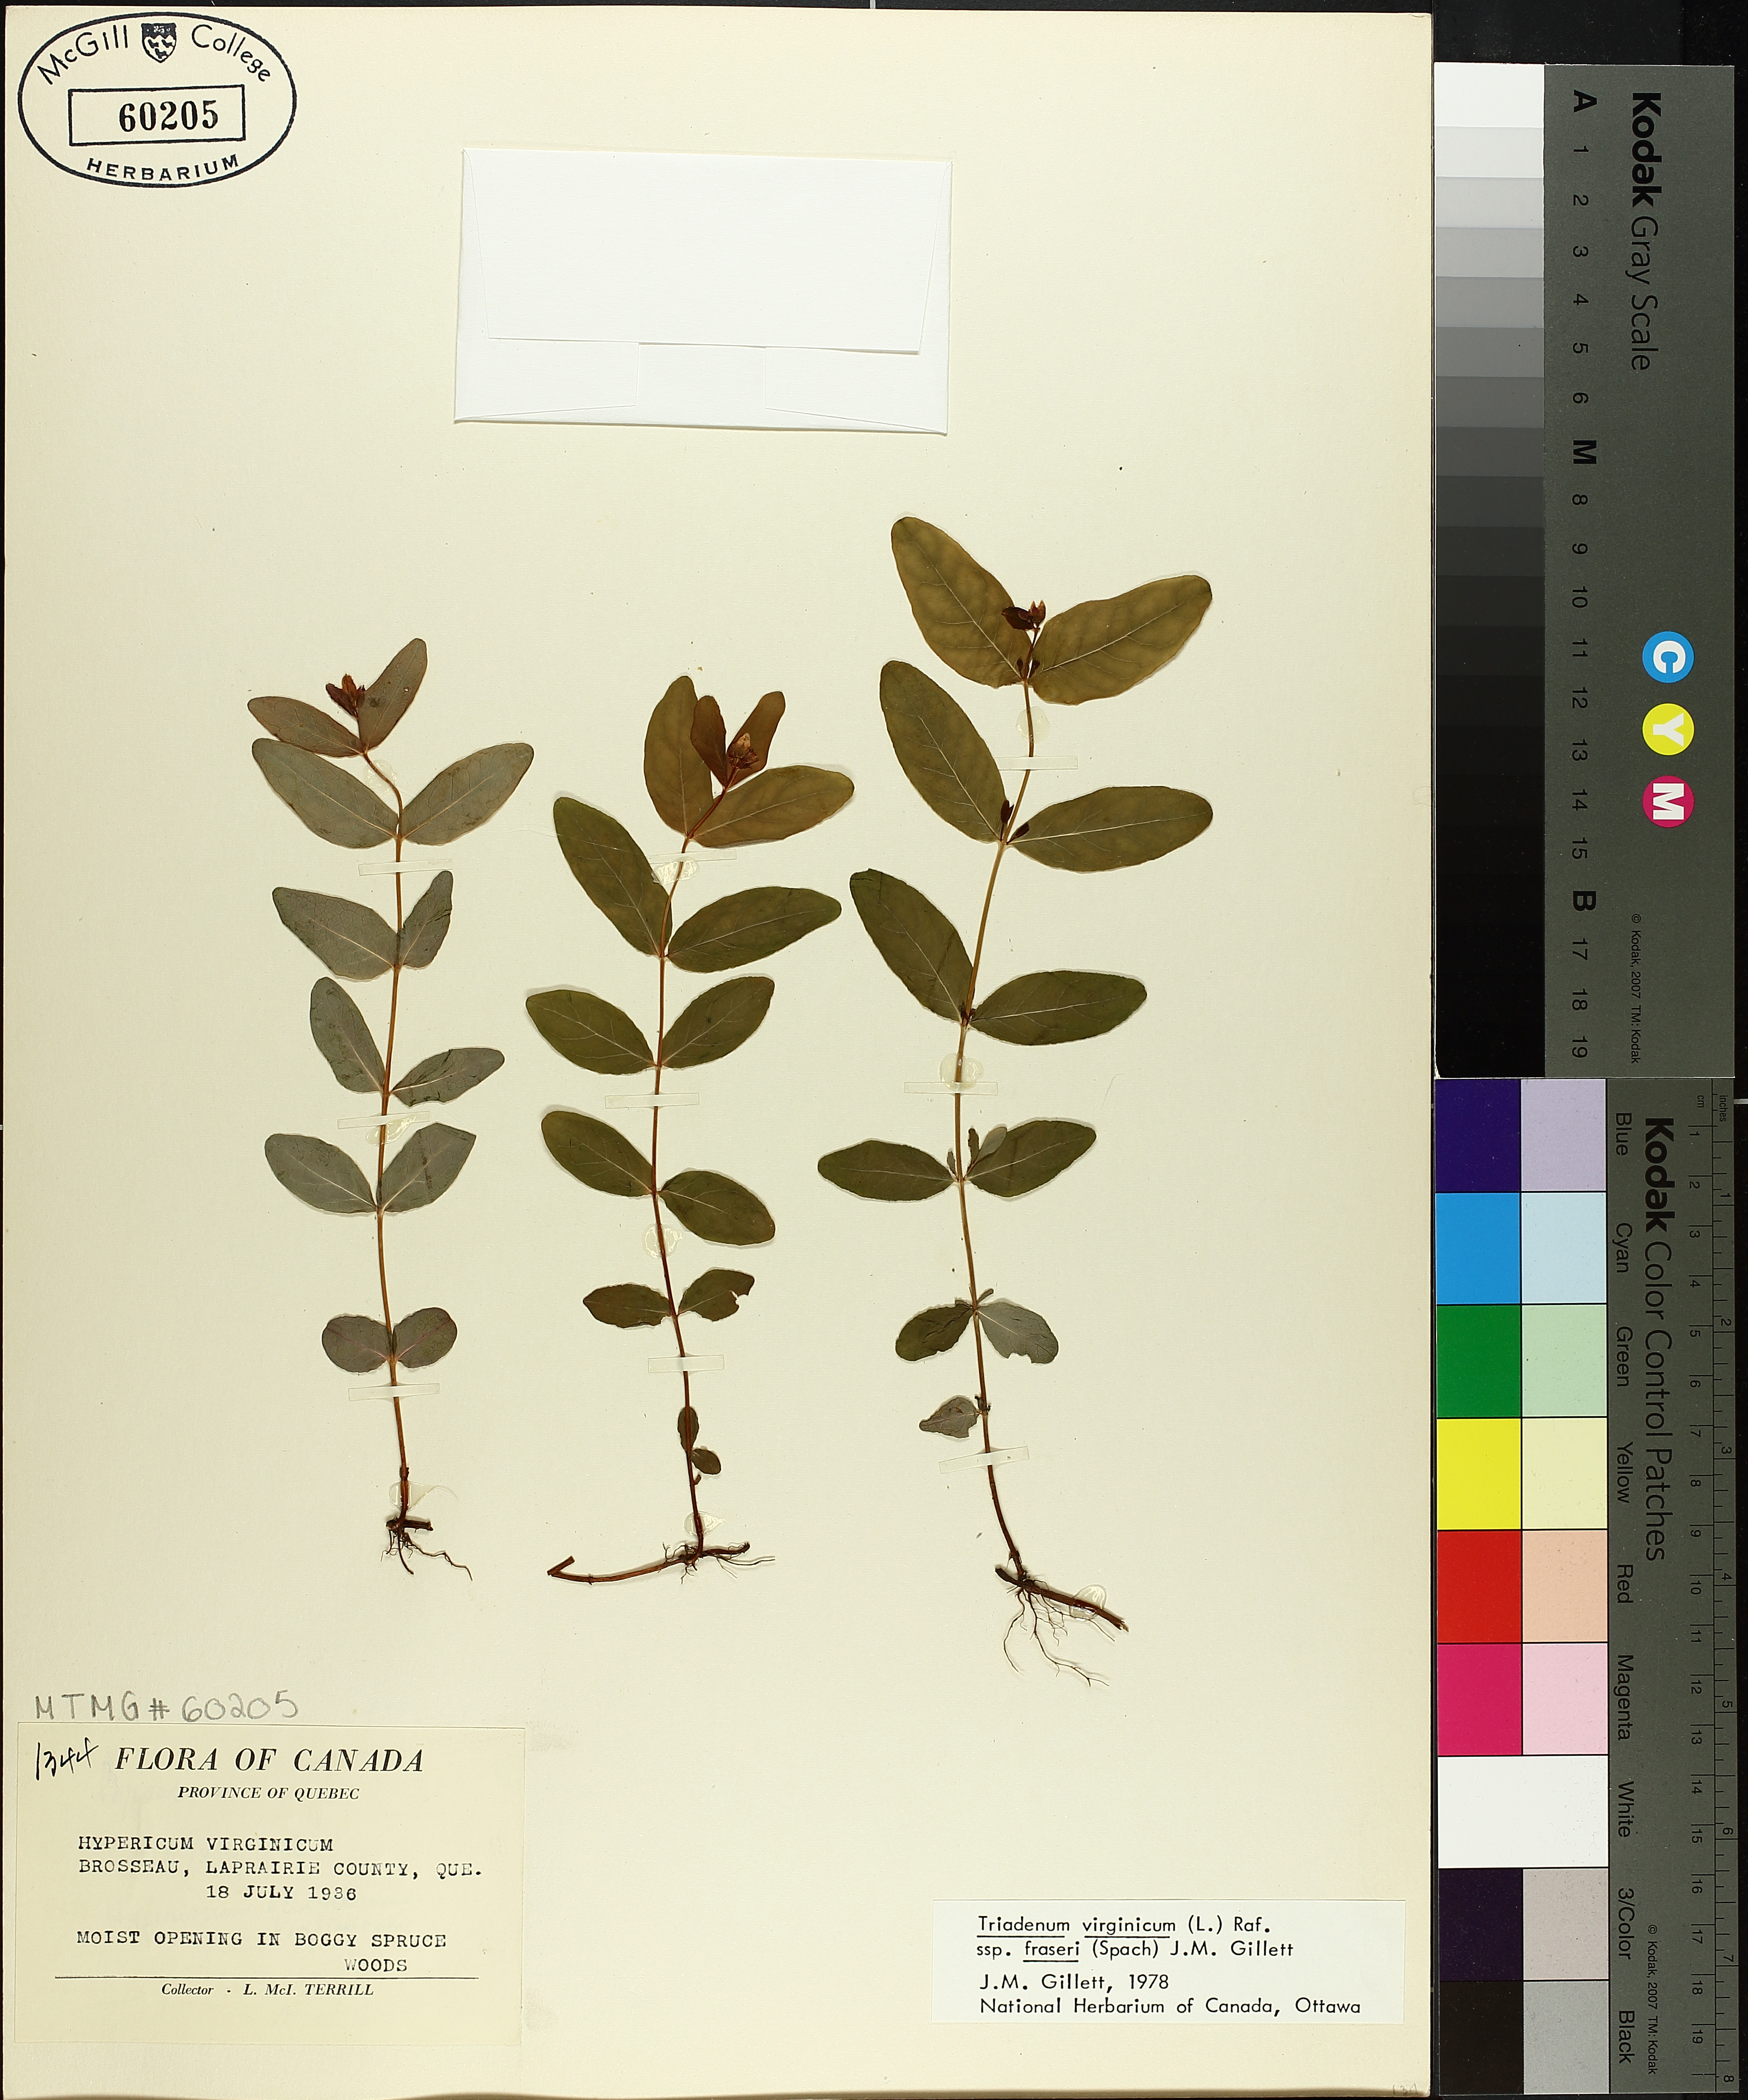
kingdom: Plantae
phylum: Tracheophyta
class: Magnoliopsida
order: Malpighiales
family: Hypericaceae
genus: Triadenum
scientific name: Triadenum fraseri
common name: Fraser's marsh st. johnswort
